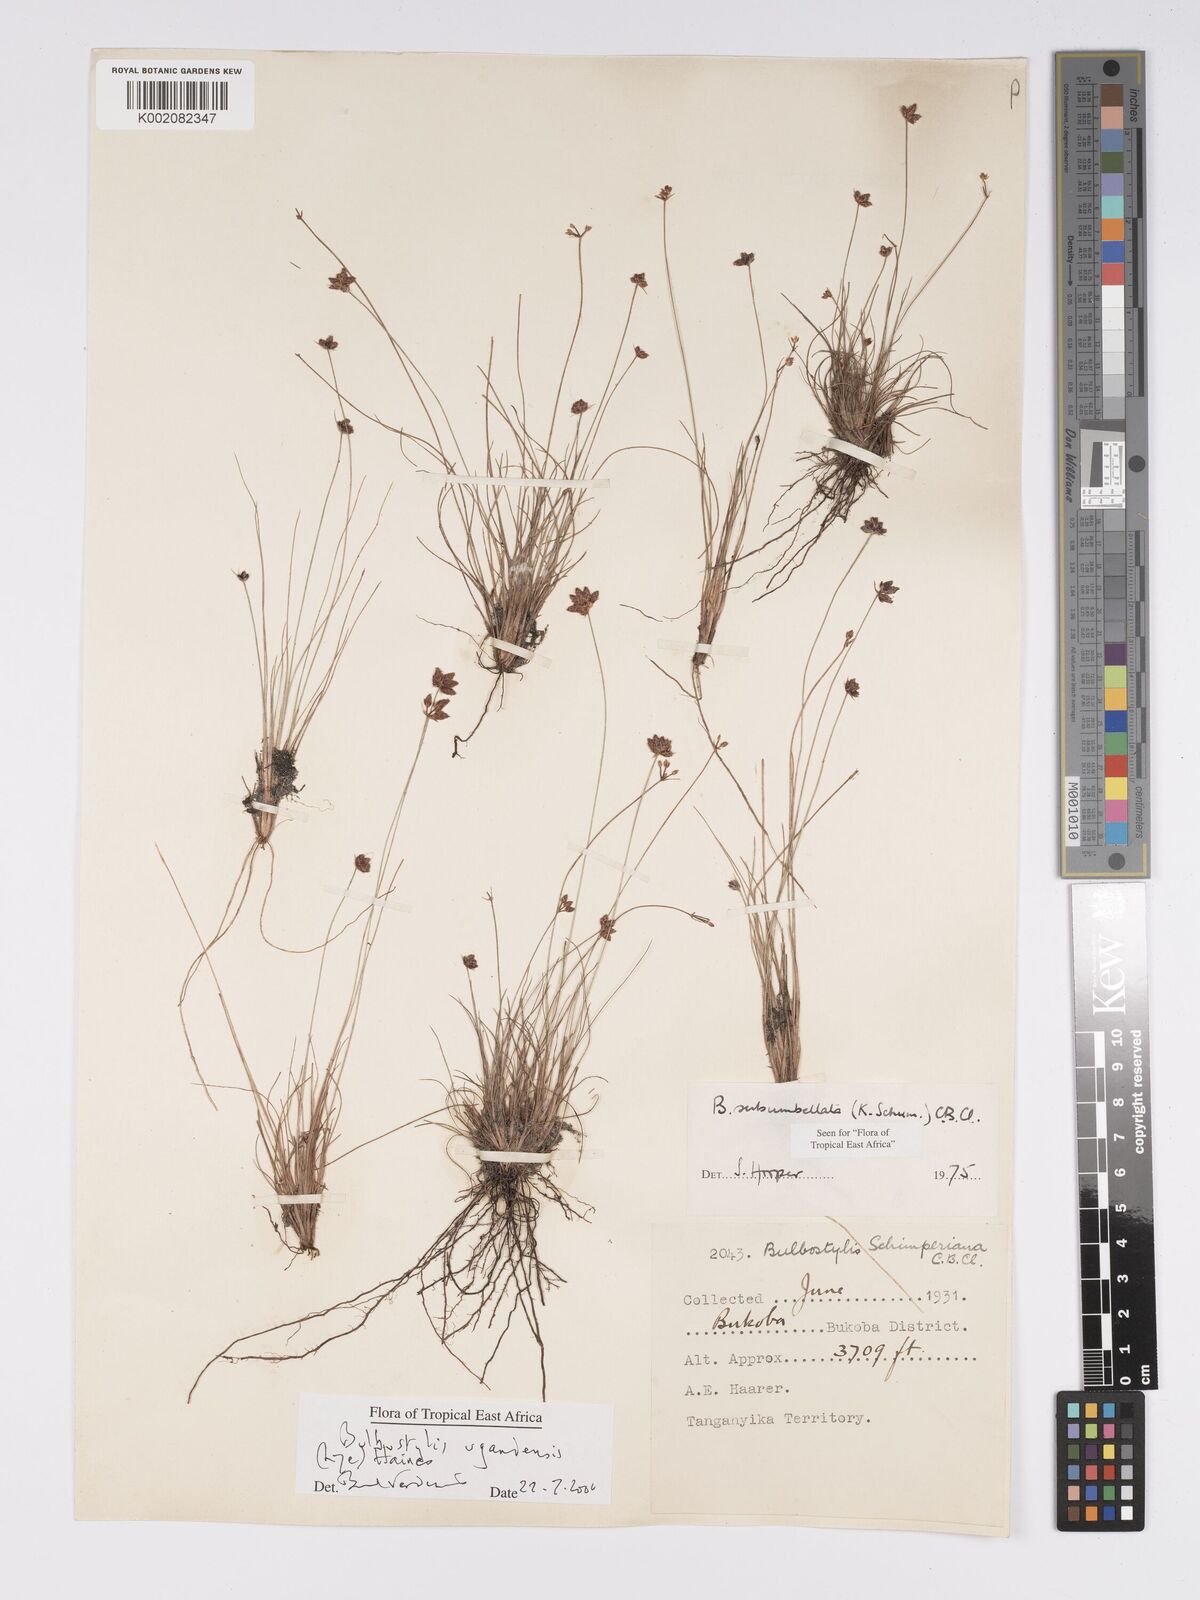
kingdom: Plantae
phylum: Tracheophyta
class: Liliopsida
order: Poales
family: Cyperaceae
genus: Bulbostylis
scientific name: Bulbostylis ugandensis
